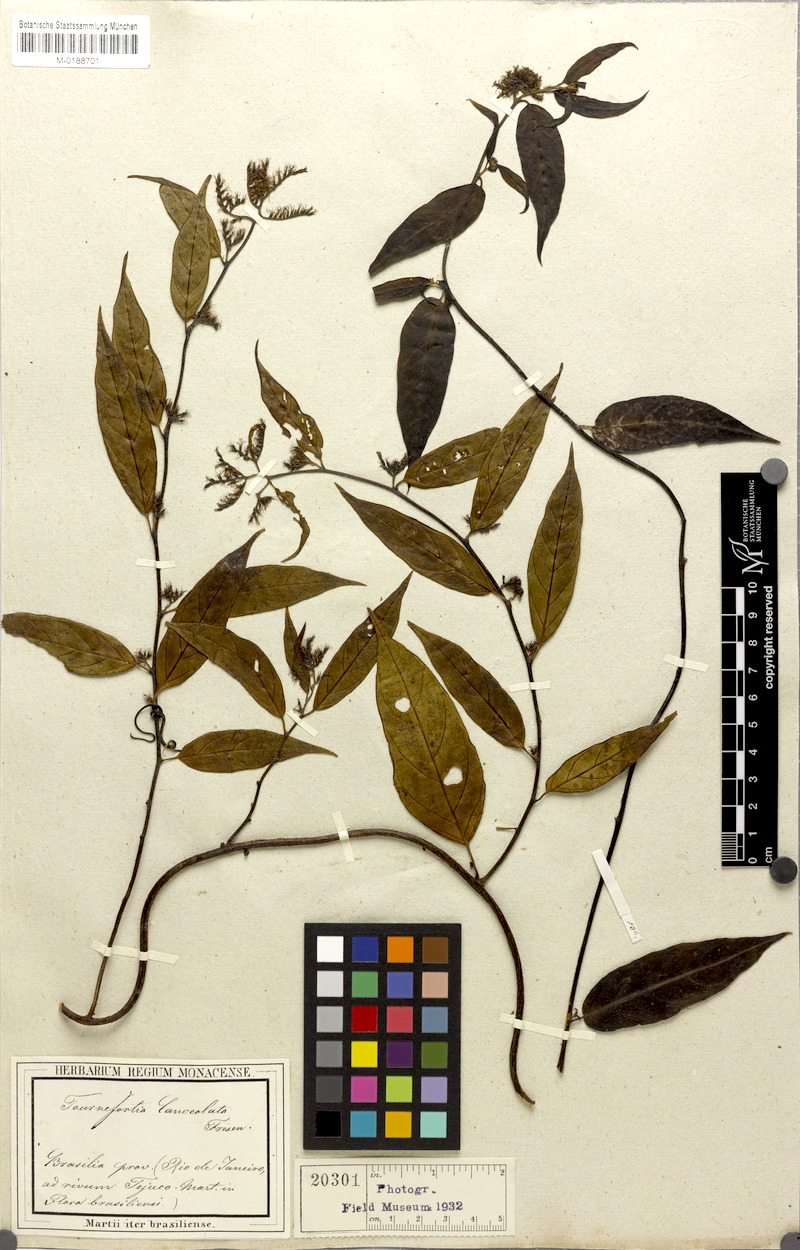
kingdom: Plantae
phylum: Tracheophyta
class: Magnoliopsida
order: Boraginales
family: Heliotropiaceae
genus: Myriopus
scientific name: Myriopus breviflorus
